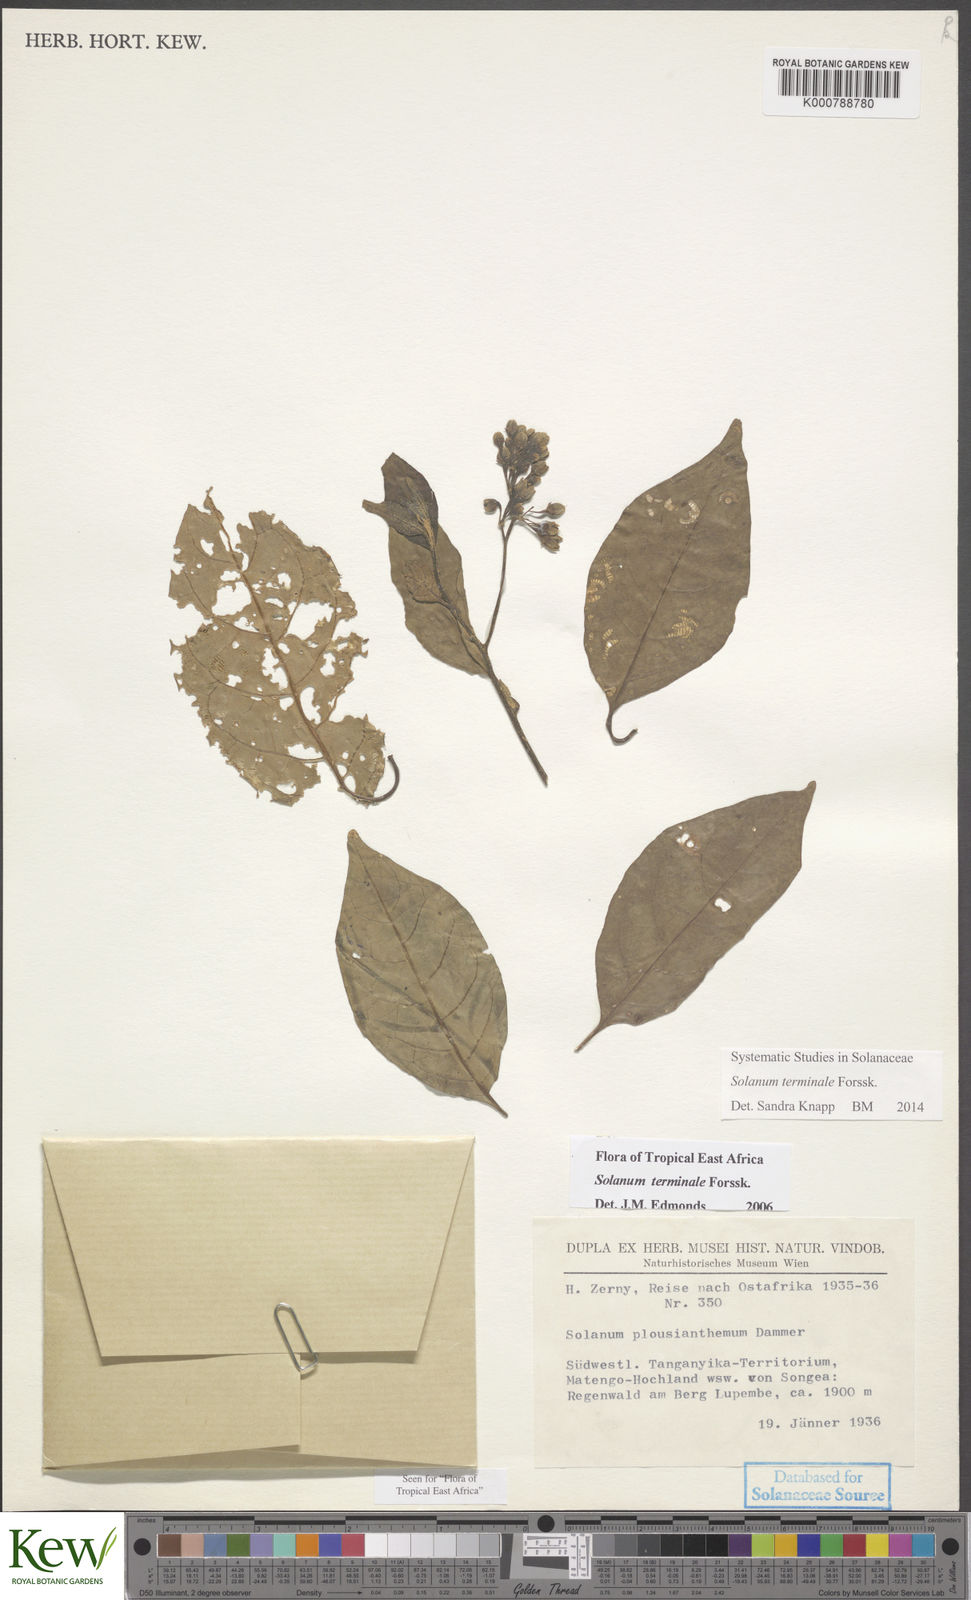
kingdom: Plantae
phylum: Tracheophyta
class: Magnoliopsida
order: Solanales
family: Solanaceae
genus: Solanum
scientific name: Solanum terminale
